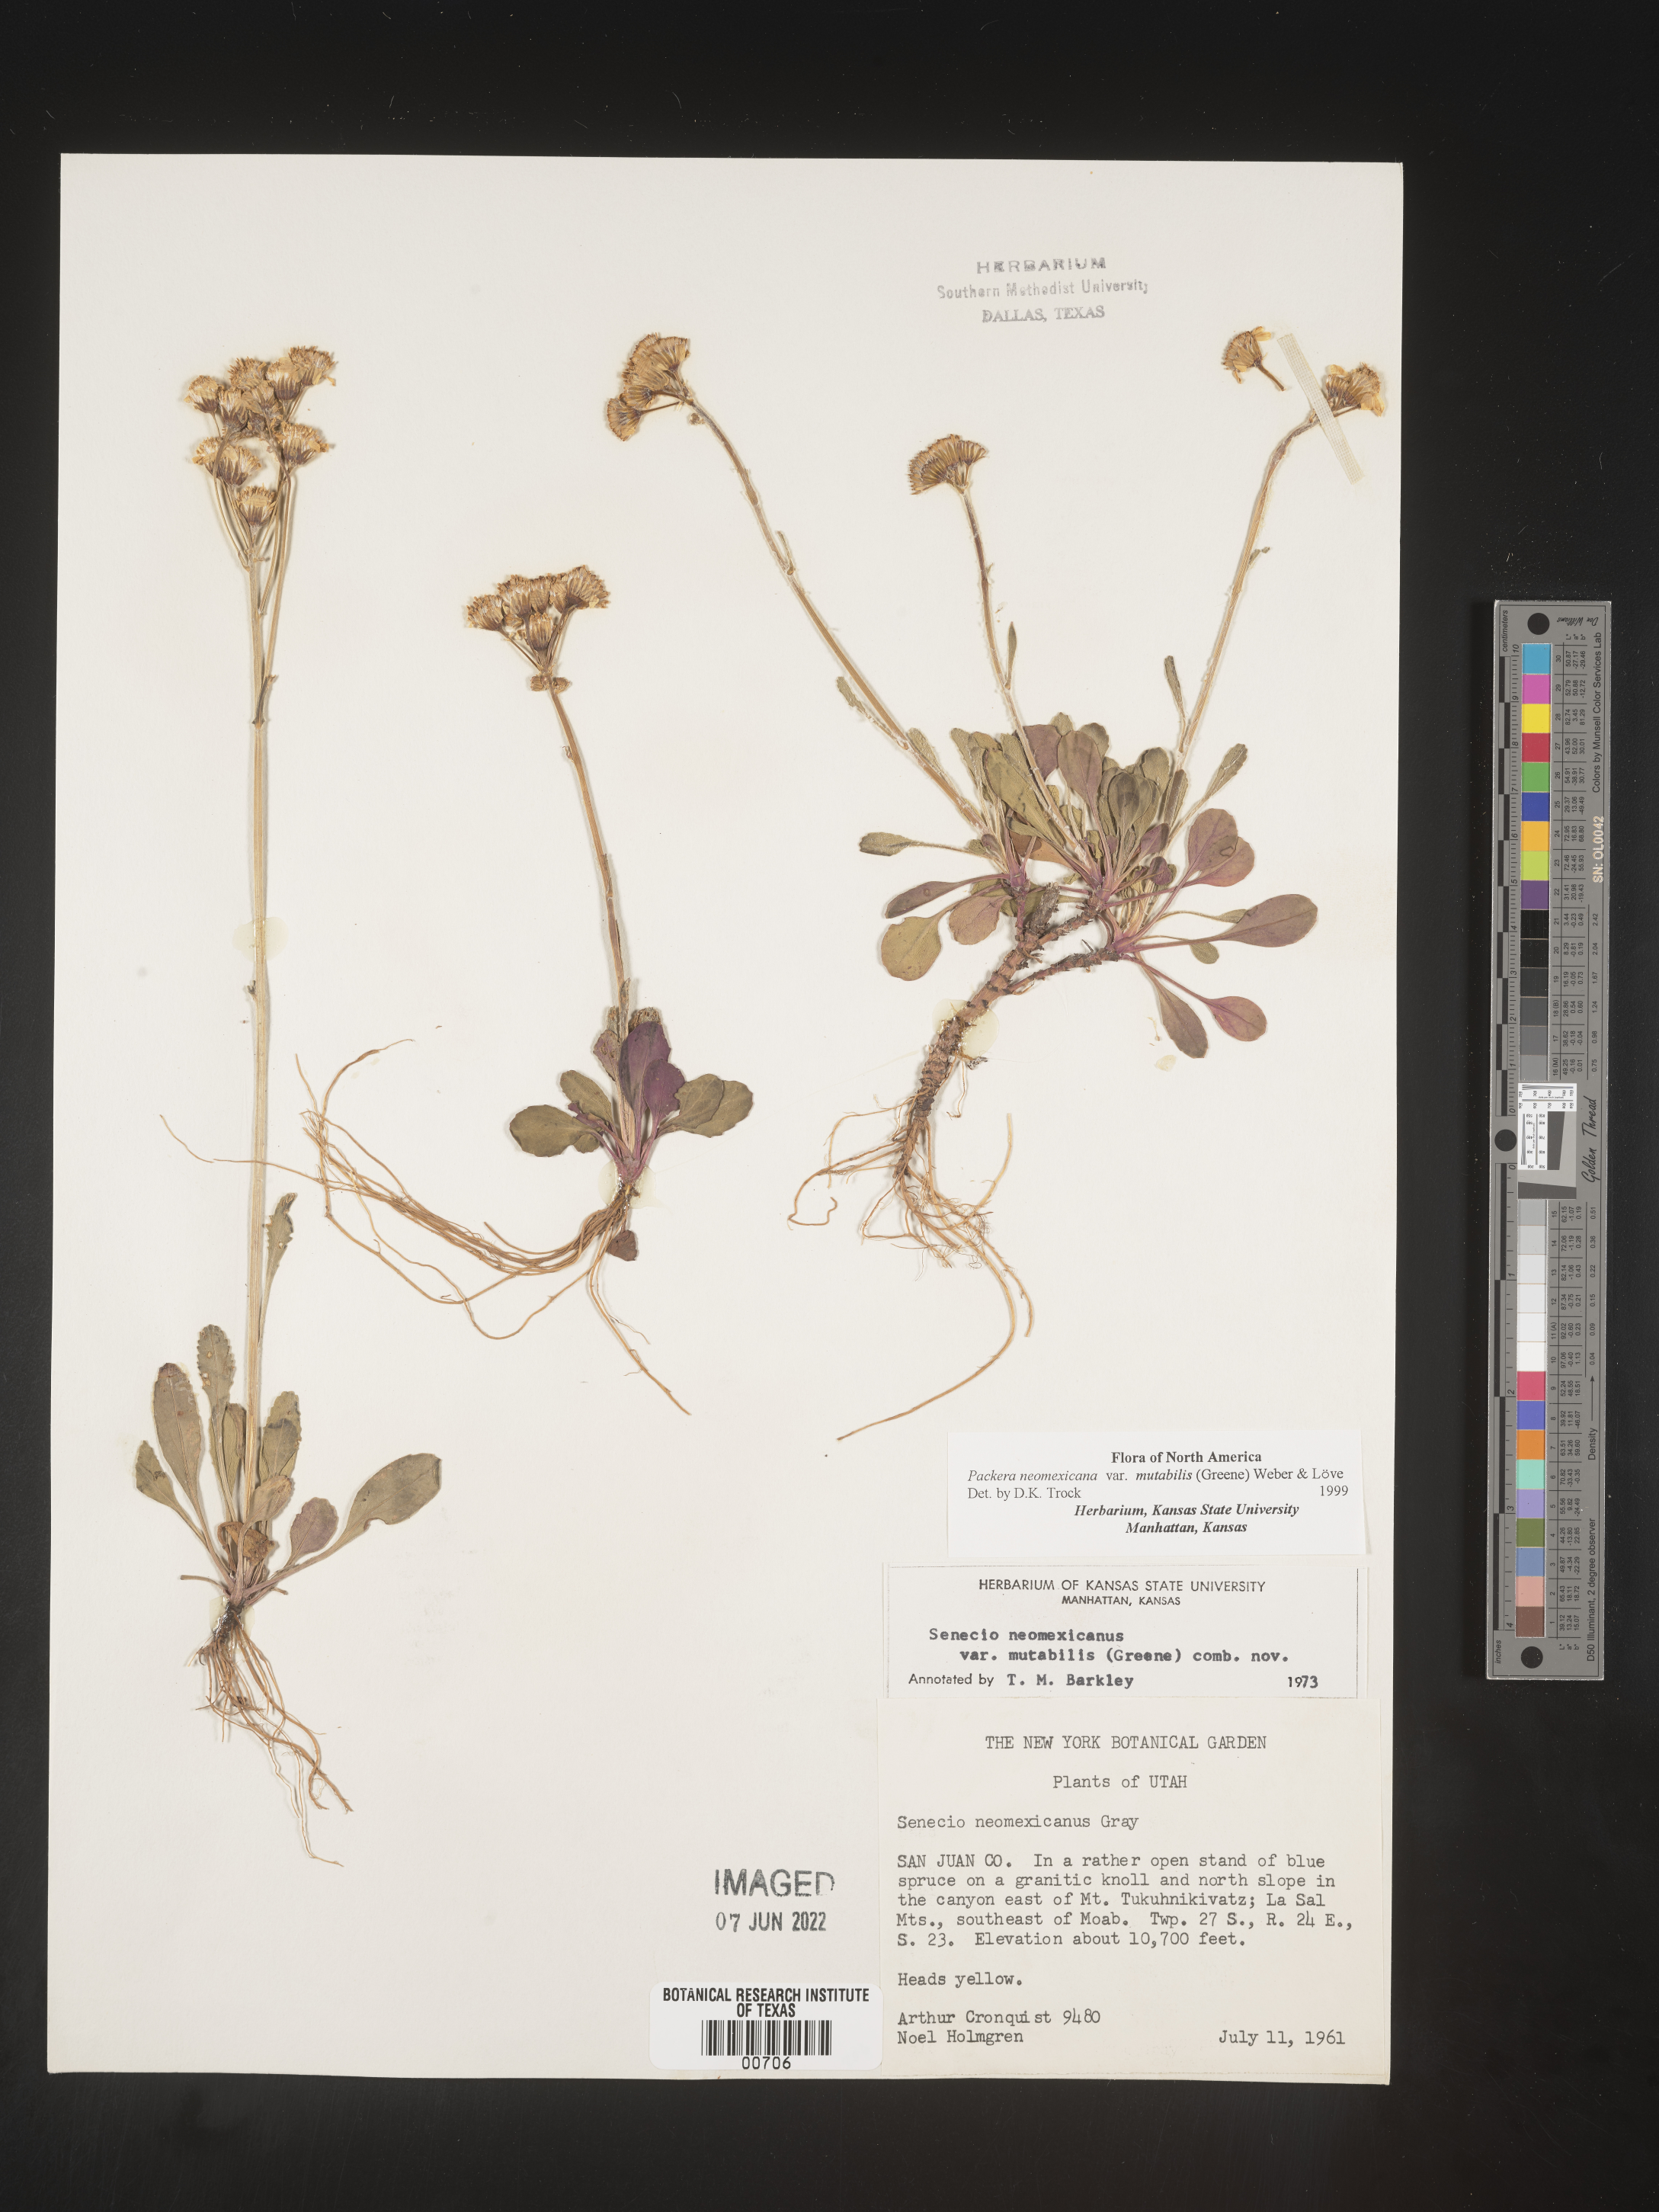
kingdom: Plantae
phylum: Tracheophyta
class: Magnoliopsida
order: Asterales
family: Asteraceae
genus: Packera
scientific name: Packera neomexicana
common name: New mexico butterweed
